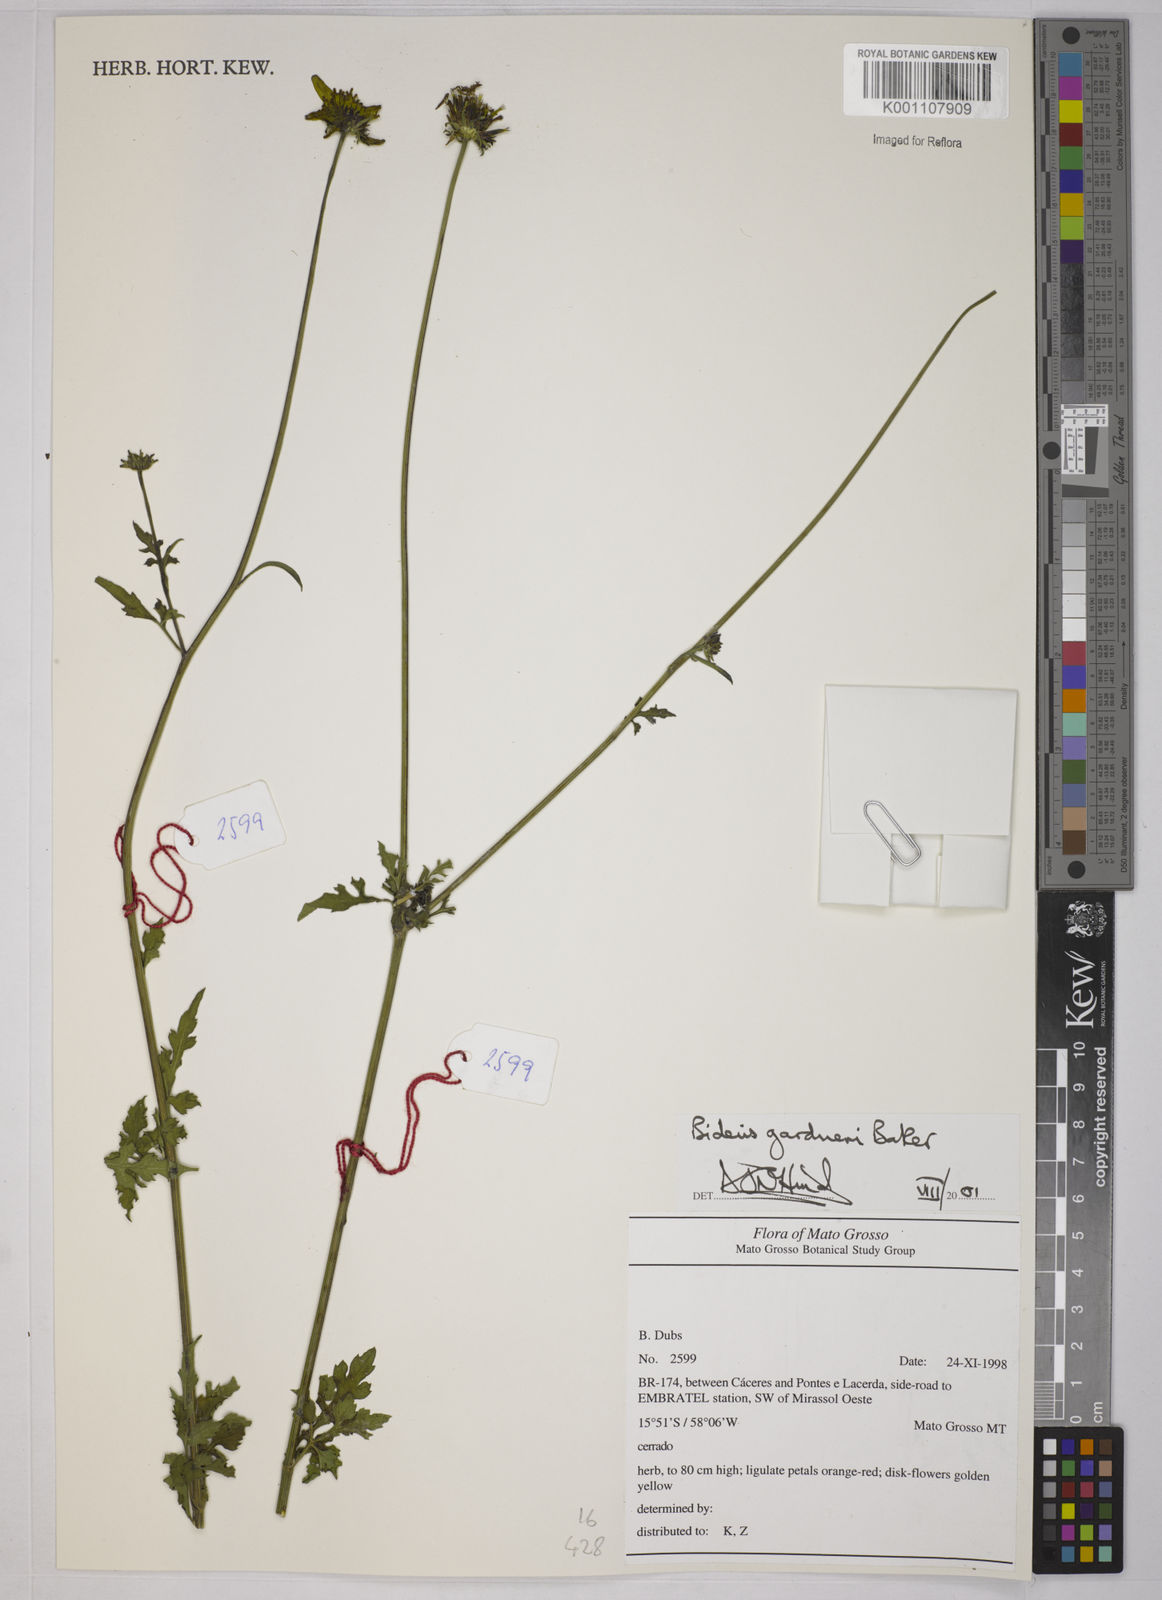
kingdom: Plantae
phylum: Tracheophyta
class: Magnoliopsida
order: Asterales
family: Asteraceae
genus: Bidens
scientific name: Bidens gardneri
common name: Ridge beggartick
